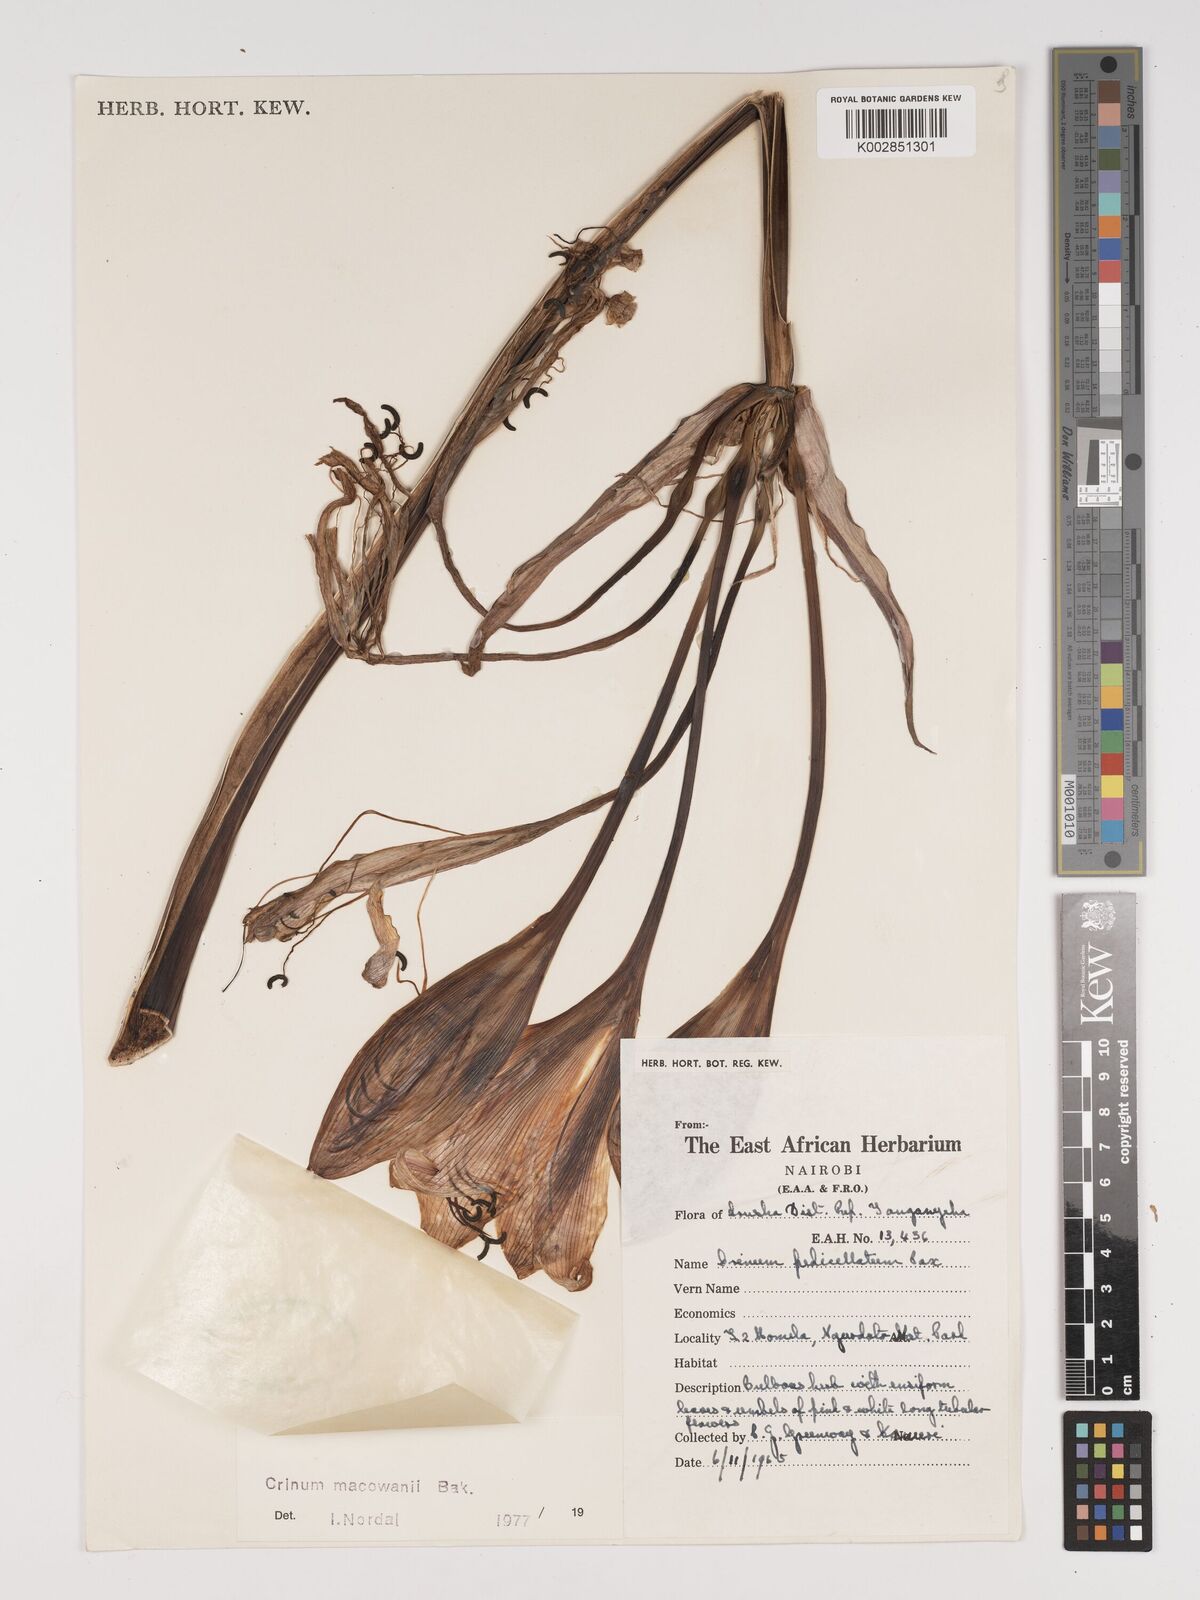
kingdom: Plantae
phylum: Tracheophyta
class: Liliopsida
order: Asparagales
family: Amaryllidaceae
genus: Crinum
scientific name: Crinum macowanii
